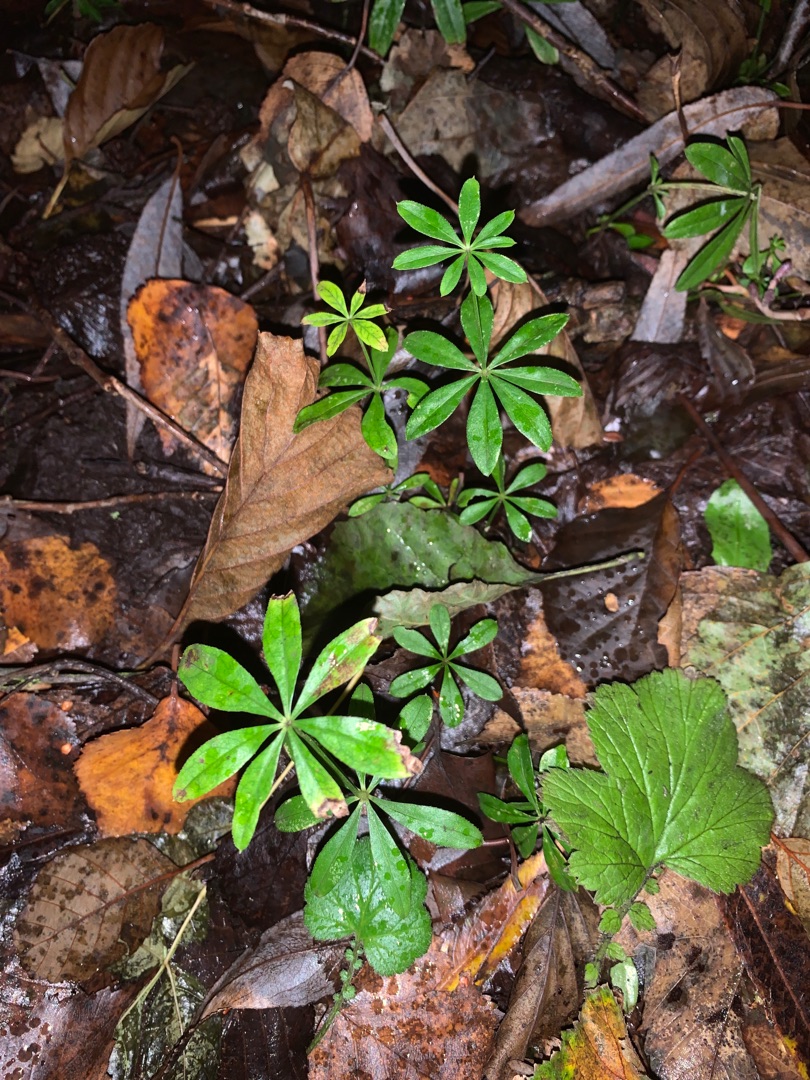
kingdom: Plantae
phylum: Tracheophyta
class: Magnoliopsida
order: Gentianales
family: Rubiaceae
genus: Galium
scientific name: Galium odoratum
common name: Skovmærke
